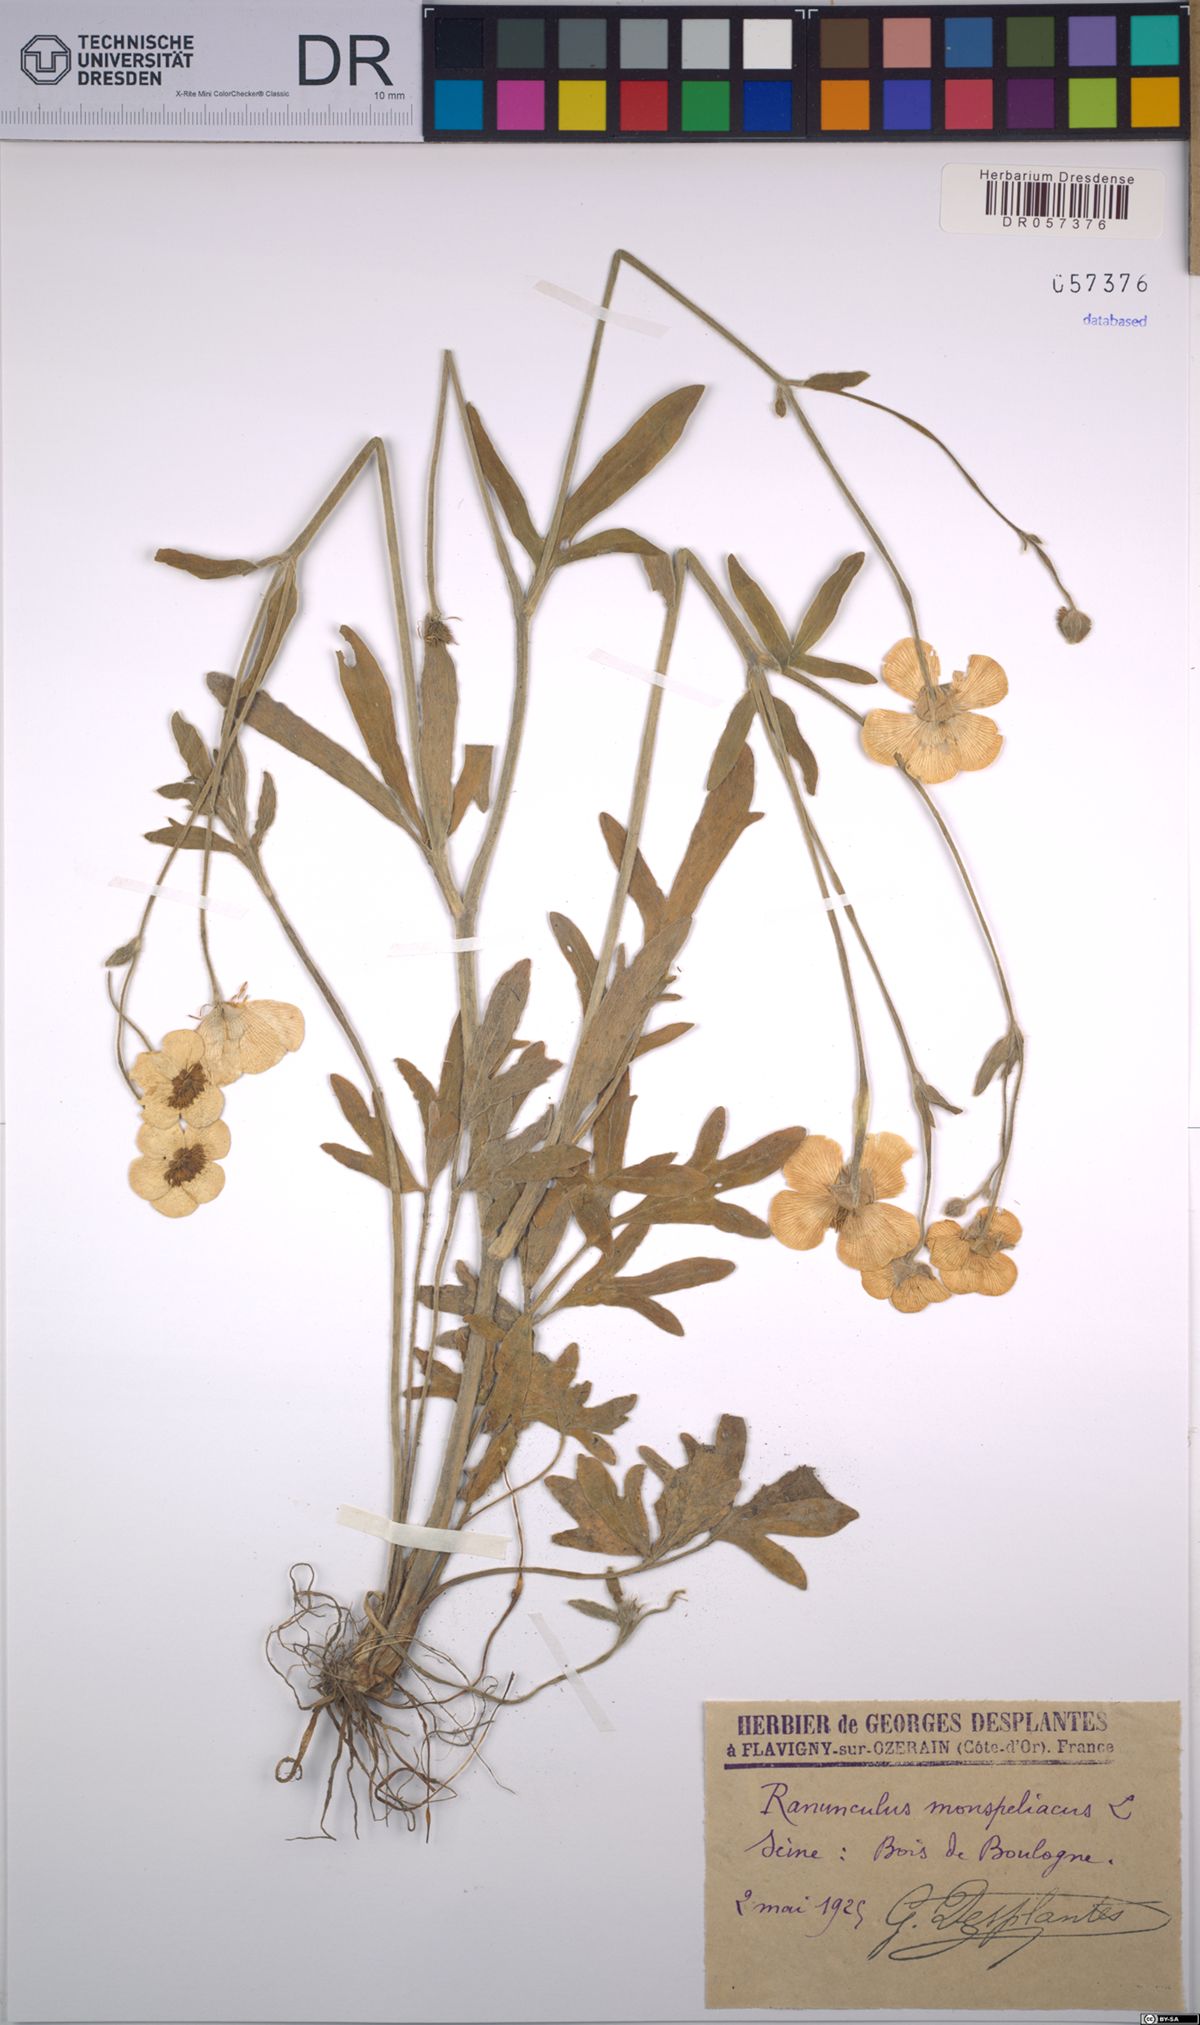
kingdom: Plantae
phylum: Tracheophyta
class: Magnoliopsida
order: Ranunculales
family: Ranunculaceae
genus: Ranunculus
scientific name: Ranunculus monspeliacus
